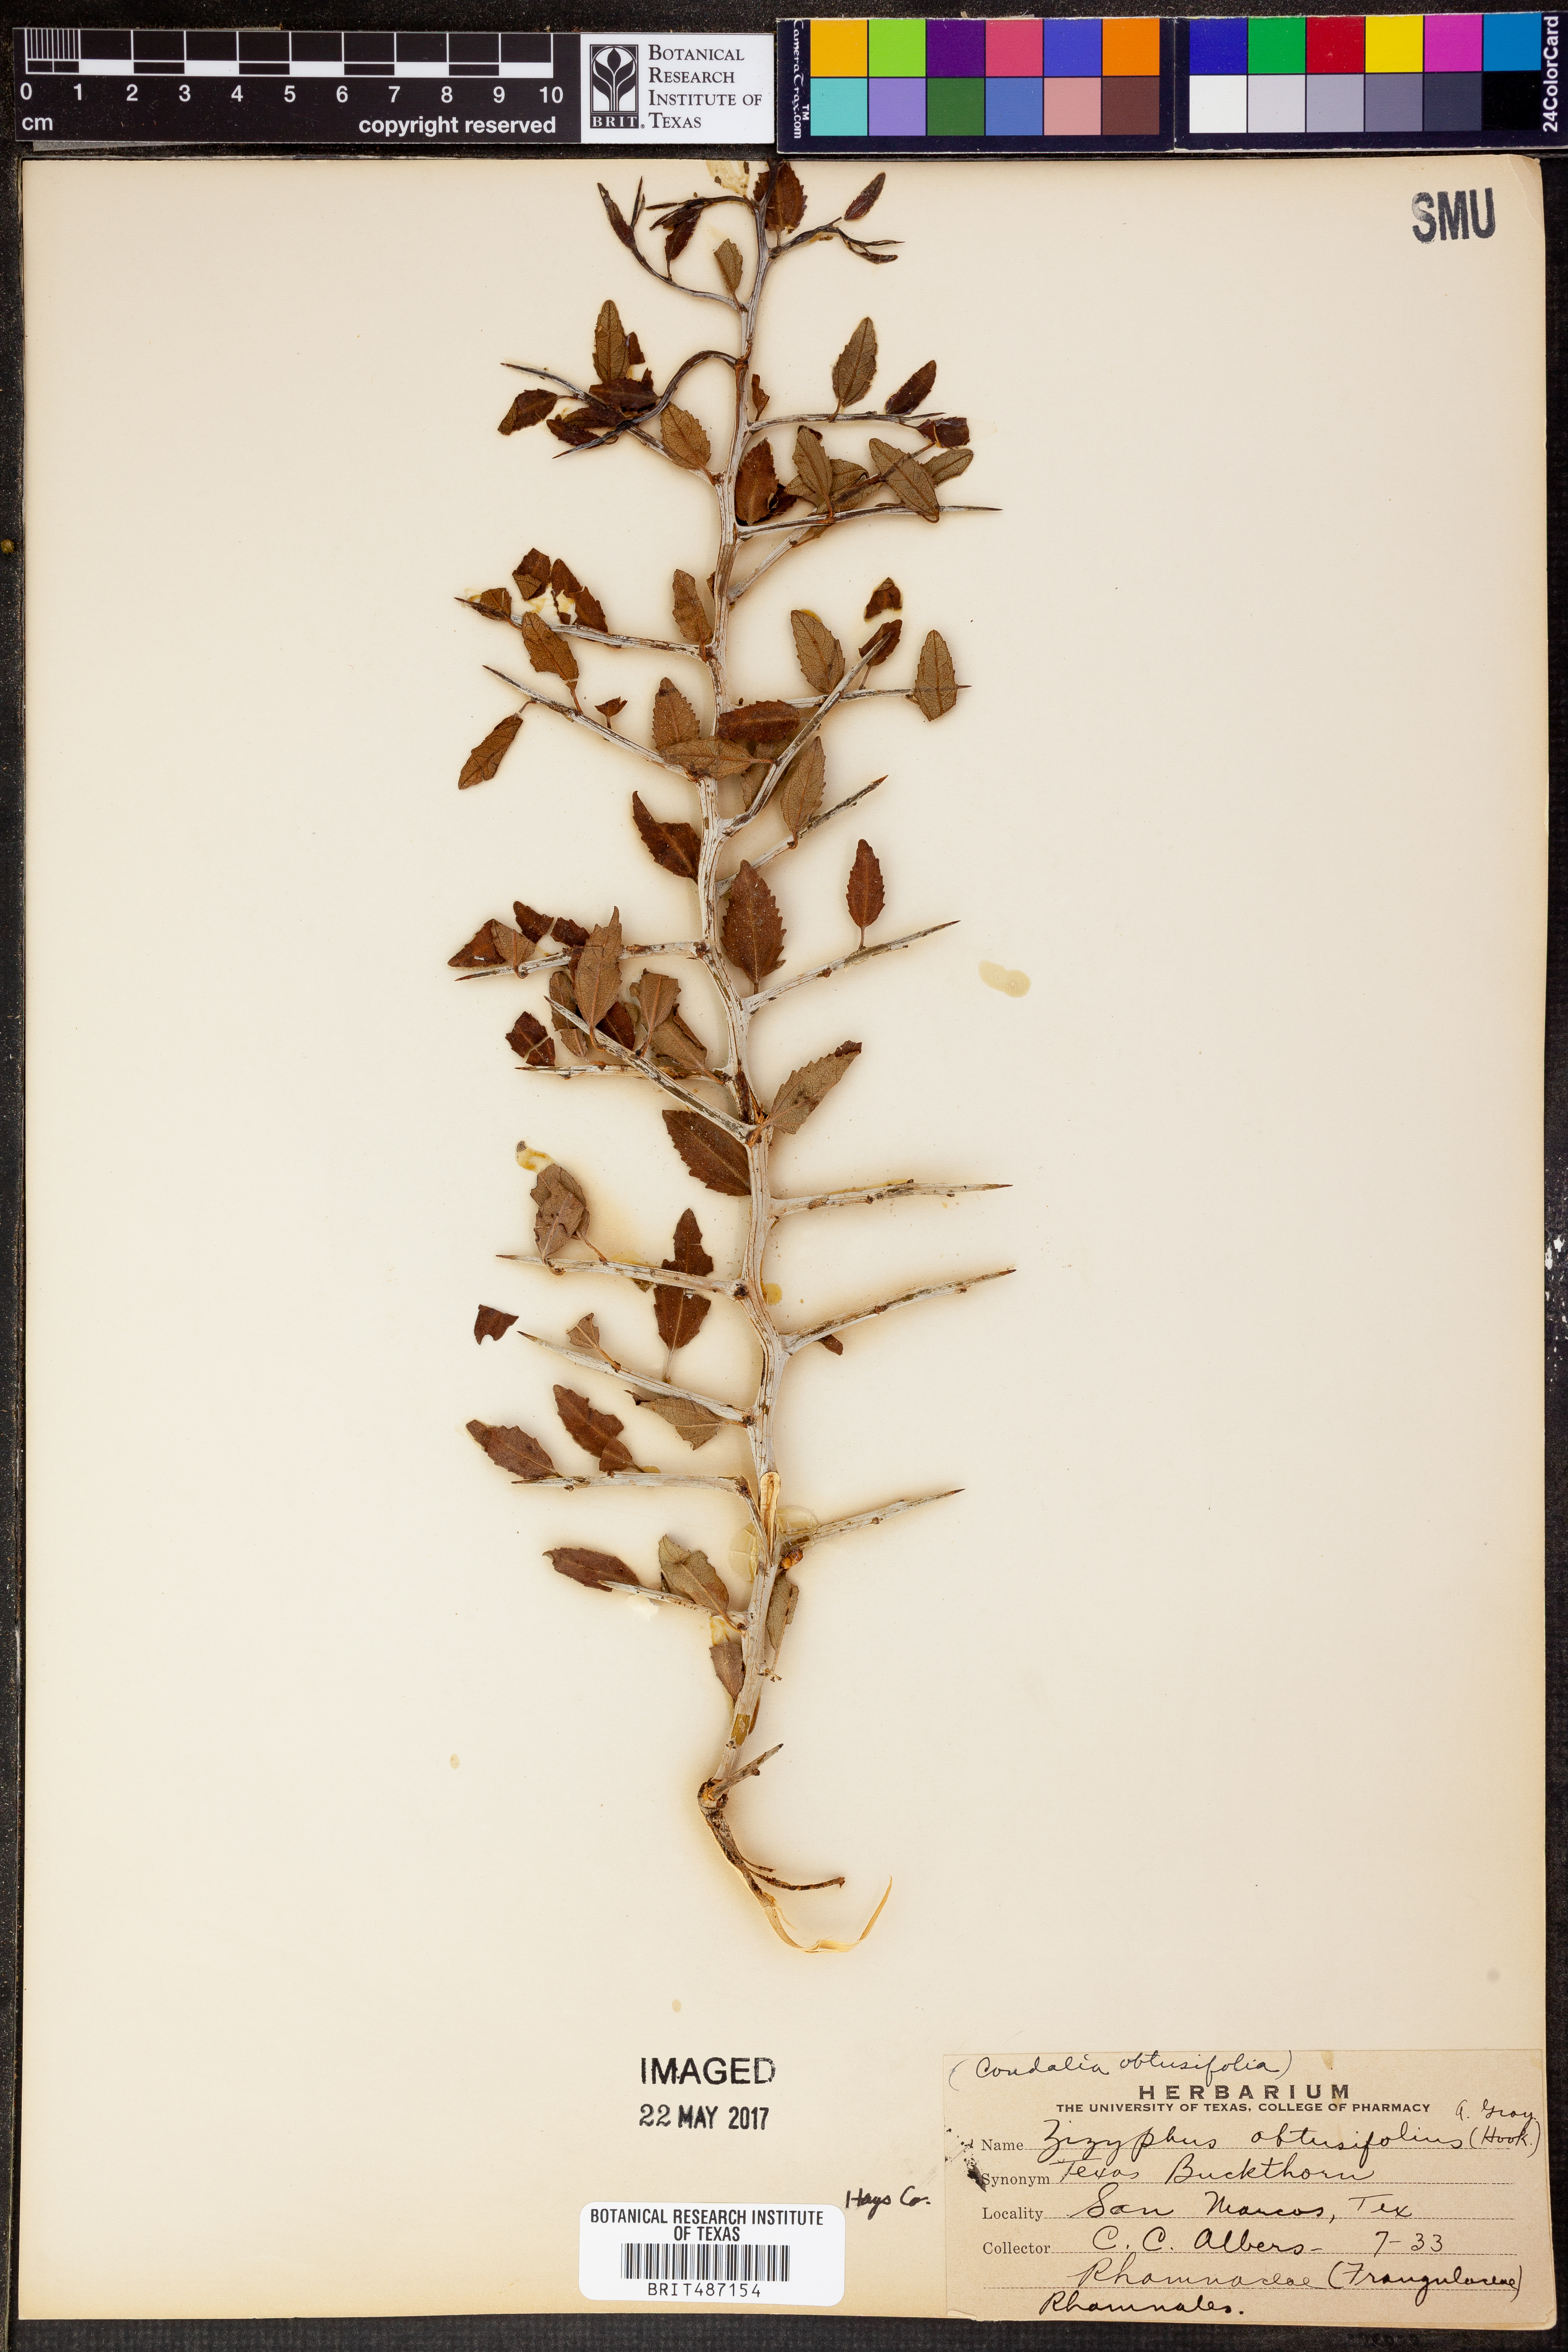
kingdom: Plantae
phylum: Tracheophyta
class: Magnoliopsida
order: Rosales
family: Rhamnaceae
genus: Sarcomphalus
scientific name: Sarcomphalus obtusifolius
